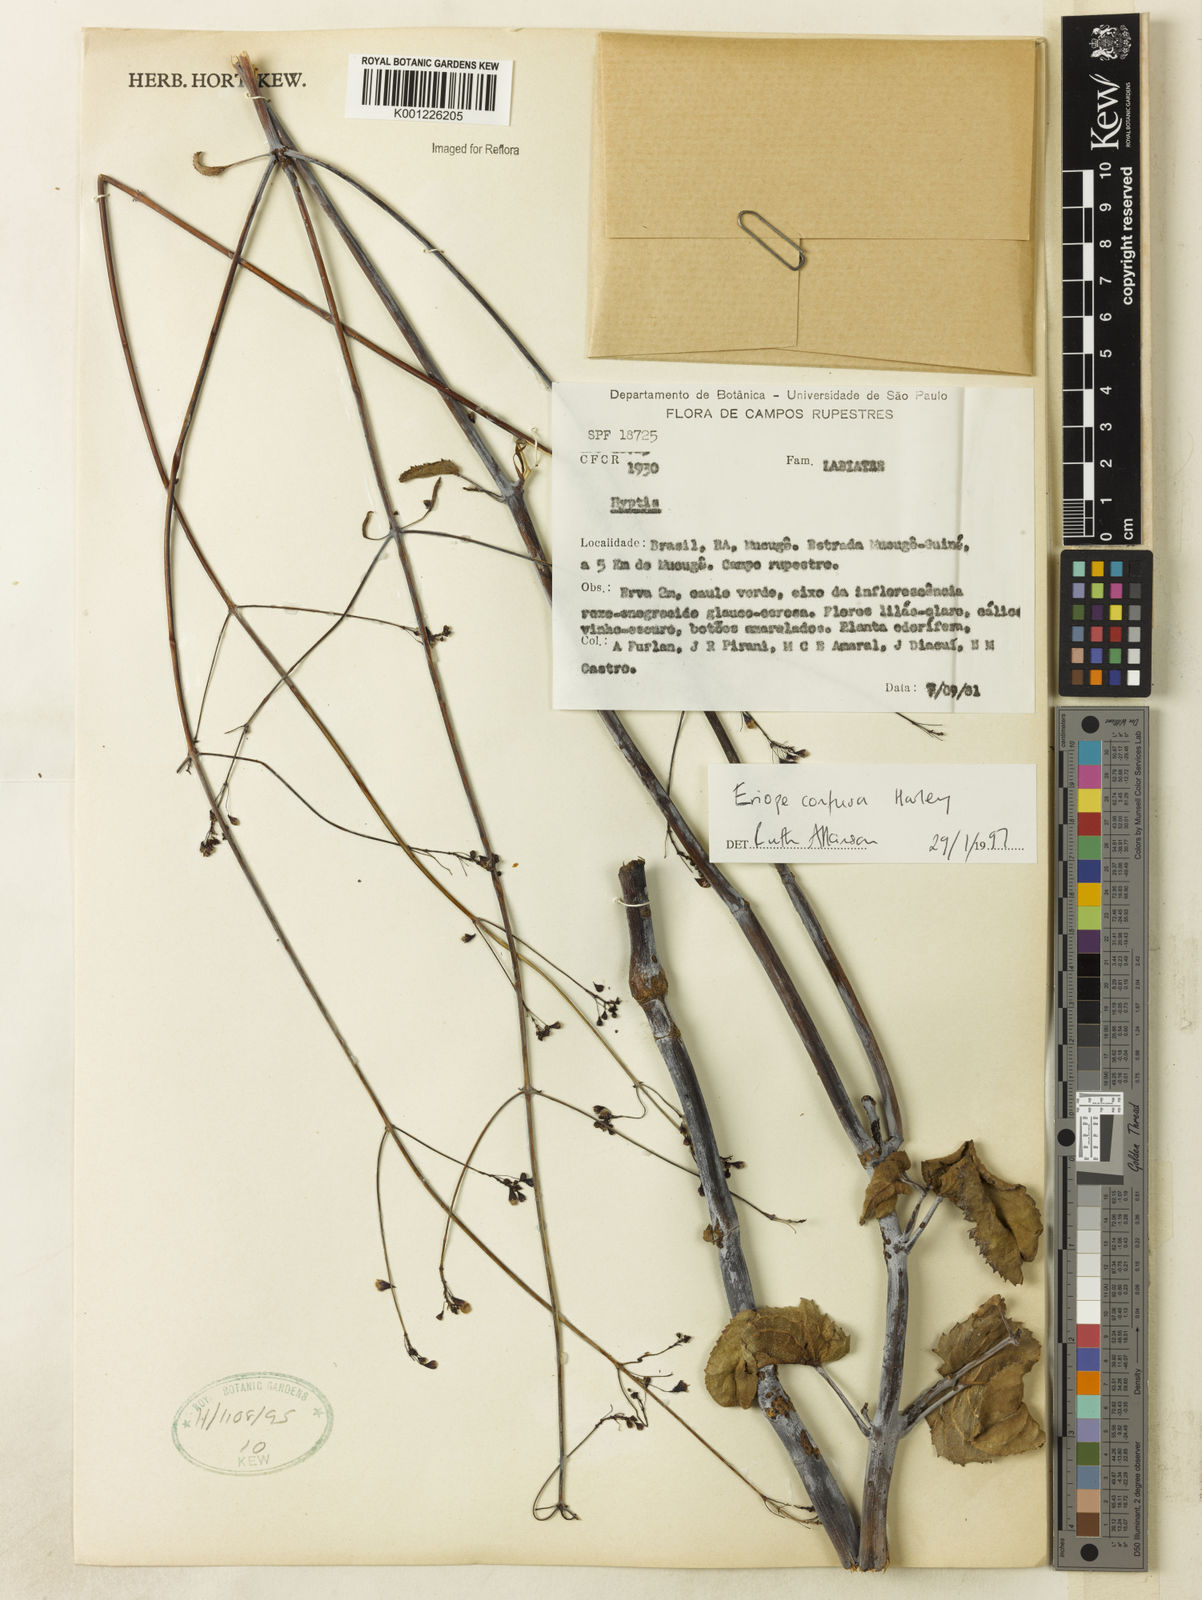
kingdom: Plantae
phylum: Tracheophyta
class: Magnoliopsida
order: Lamiales
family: Lamiaceae
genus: Eriope
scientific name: Eriope confusa
